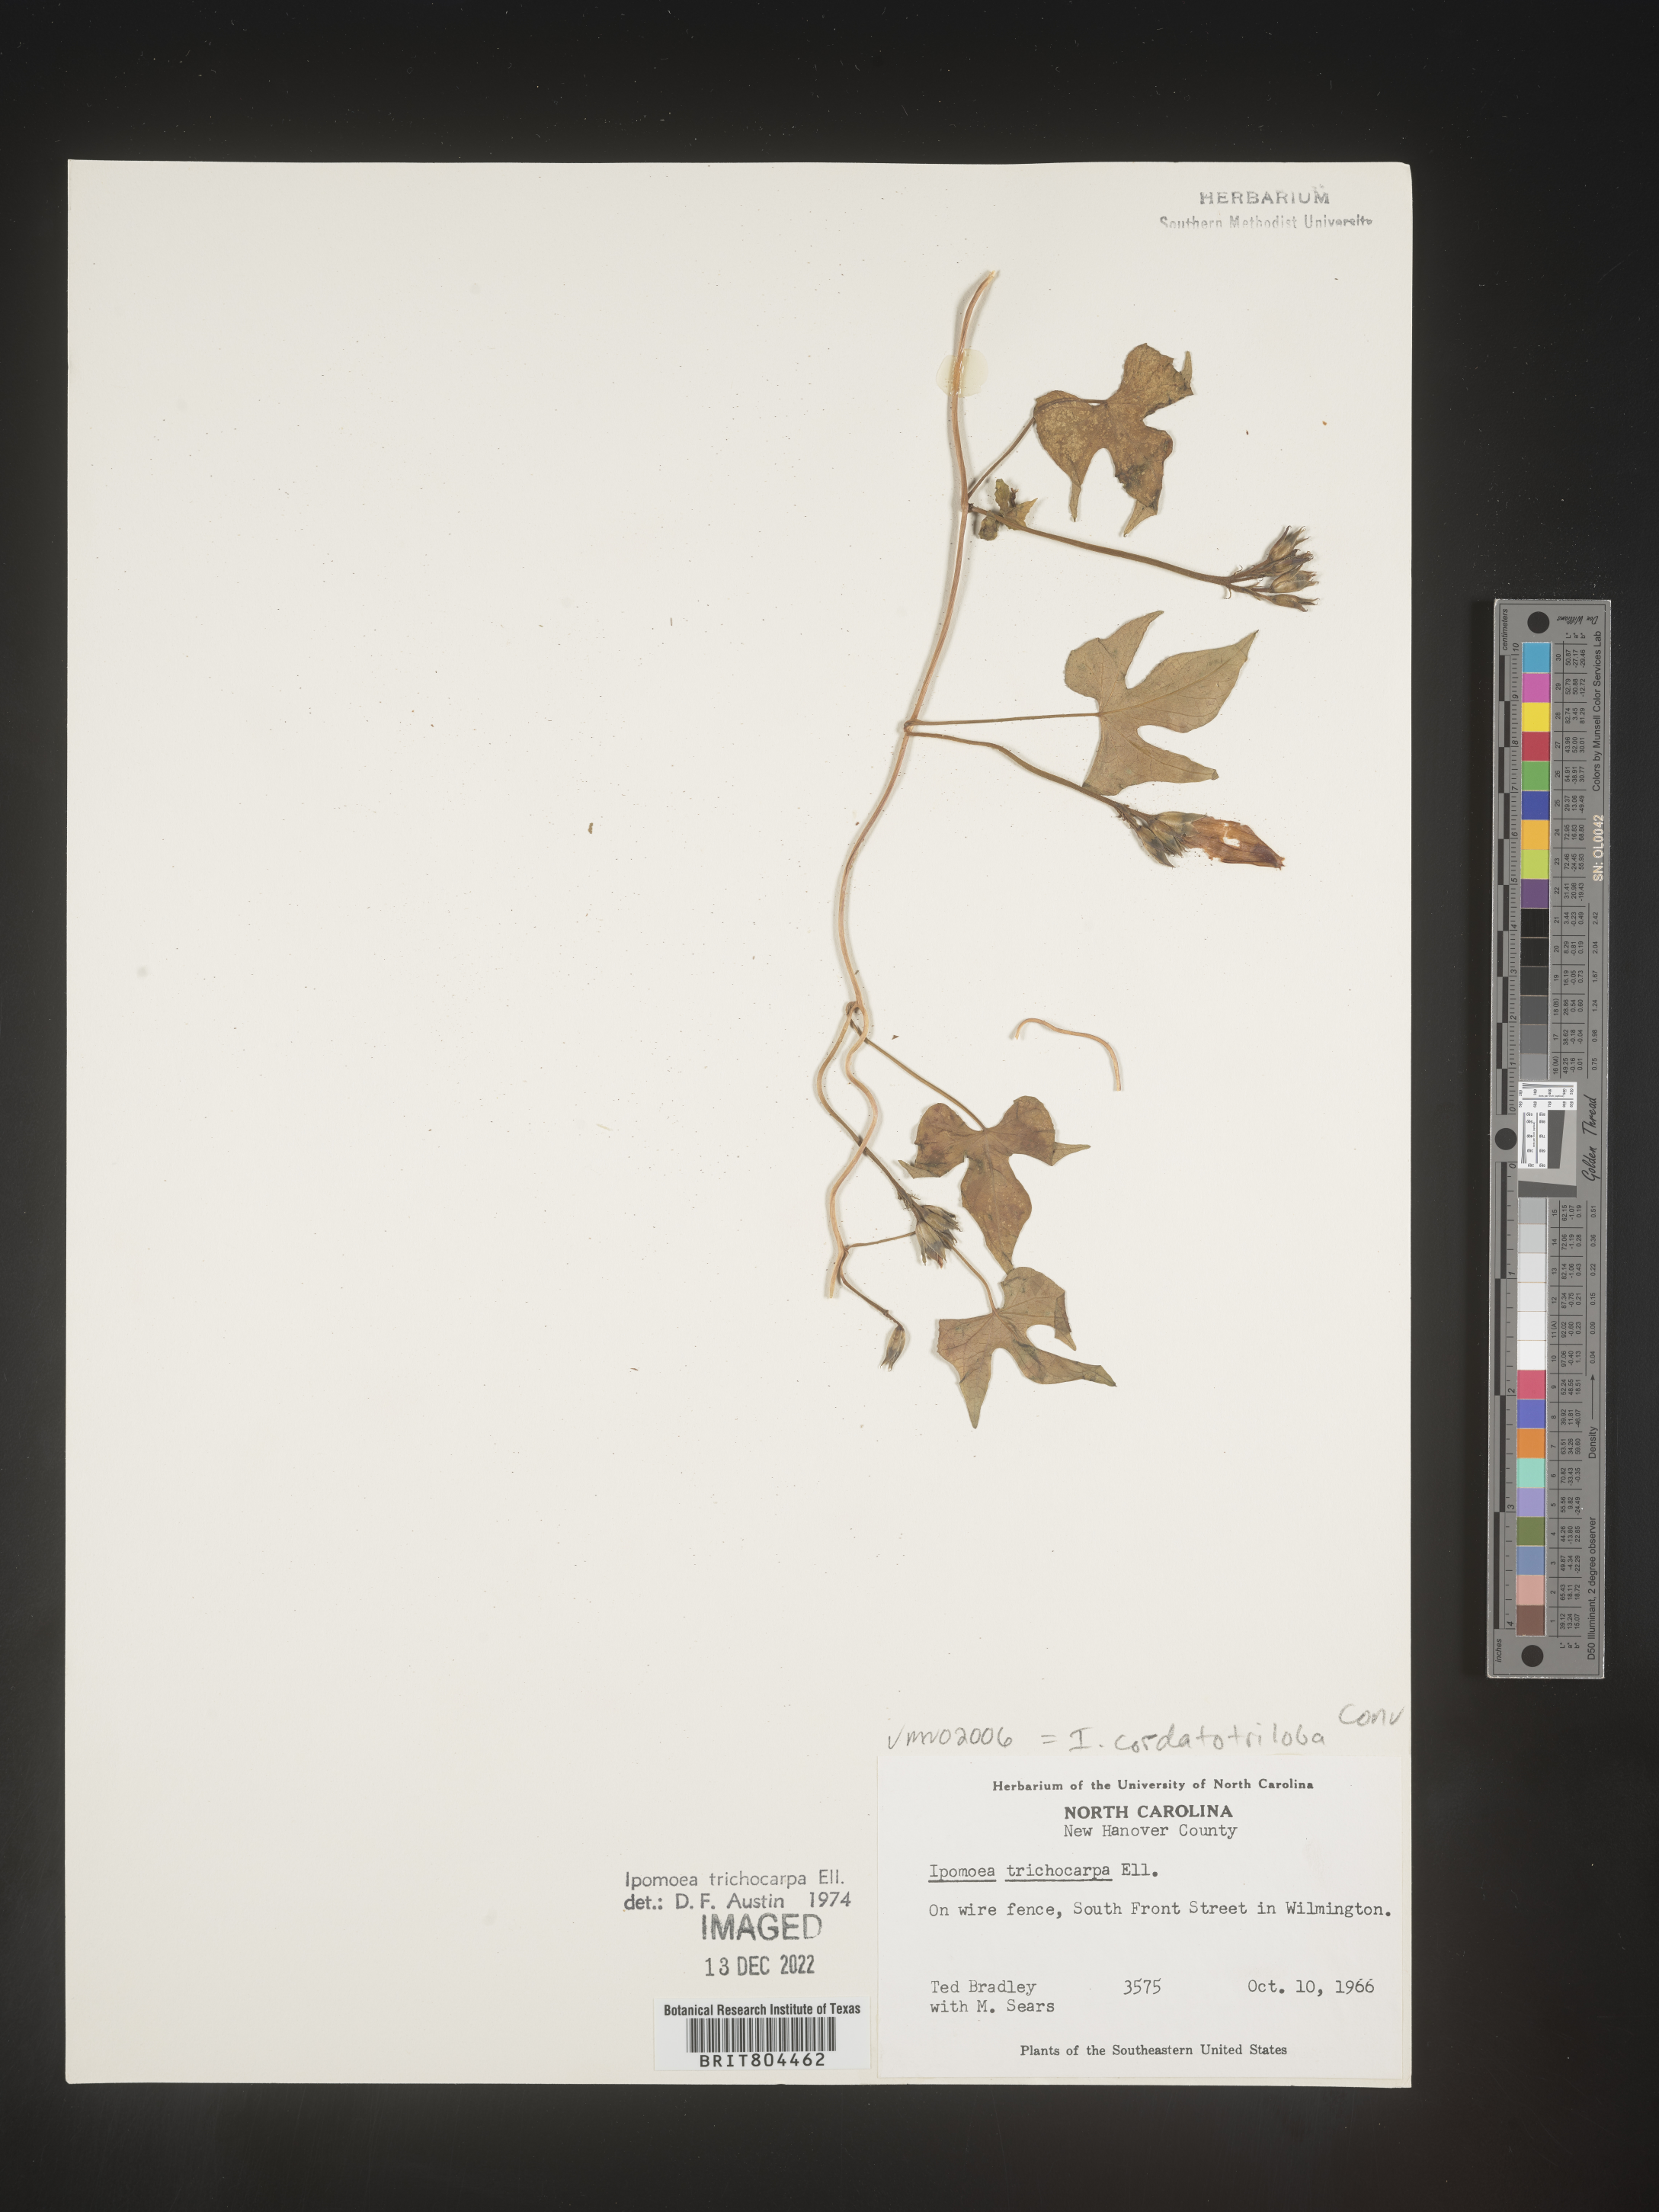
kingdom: Plantae
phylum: Tracheophyta
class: Magnoliopsida
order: Solanales
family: Convolvulaceae
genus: Ipomoea
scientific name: Ipomoea cordatotriloba
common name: Cotton morning glory
